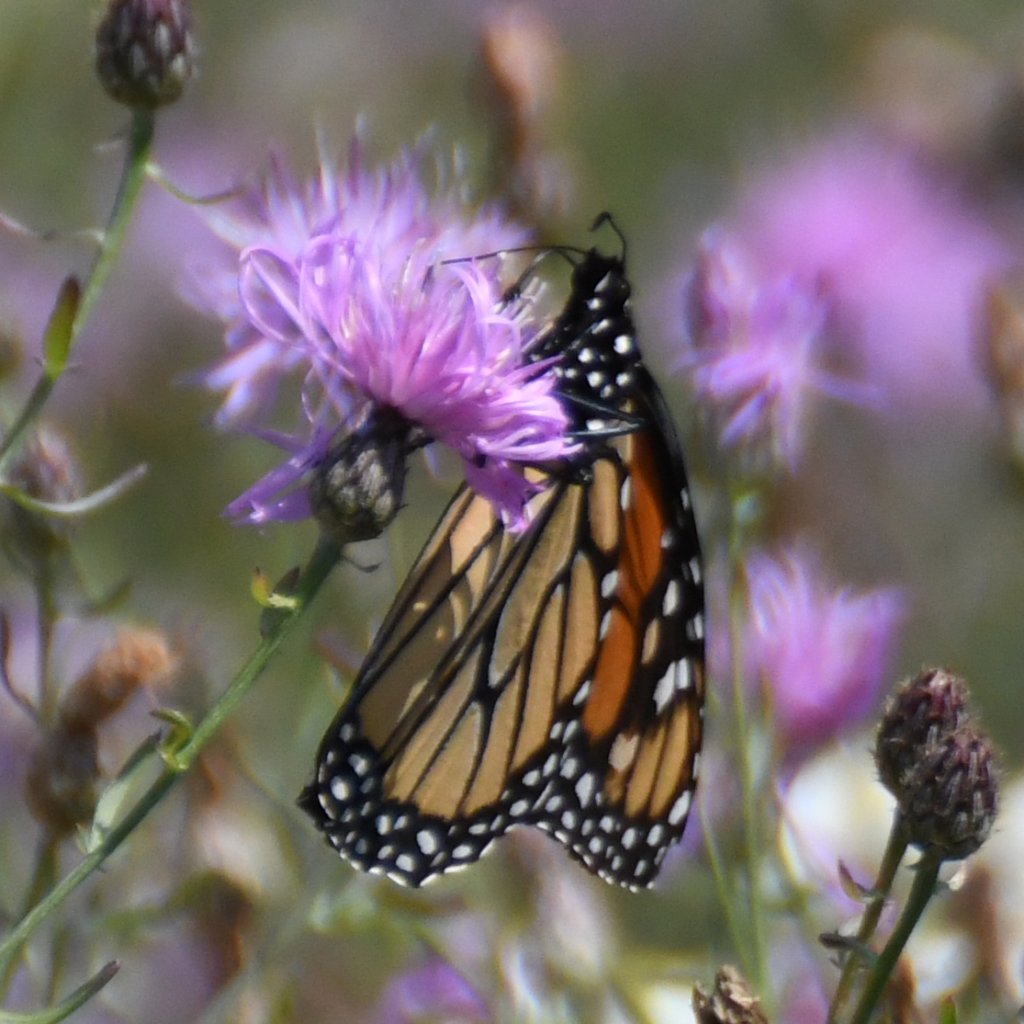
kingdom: Animalia
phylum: Arthropoda
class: Insecta
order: Lepidoptera
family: Nymphalidae
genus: Danaus
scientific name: Danaus plexippus
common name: Monarch
